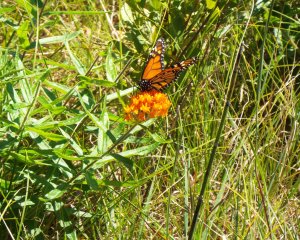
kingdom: Animalia
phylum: Arthropoda
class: Insecta
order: Lepidoptera
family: Nymphalidae
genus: Danaus
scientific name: Danaus plexippus
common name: Monarch
